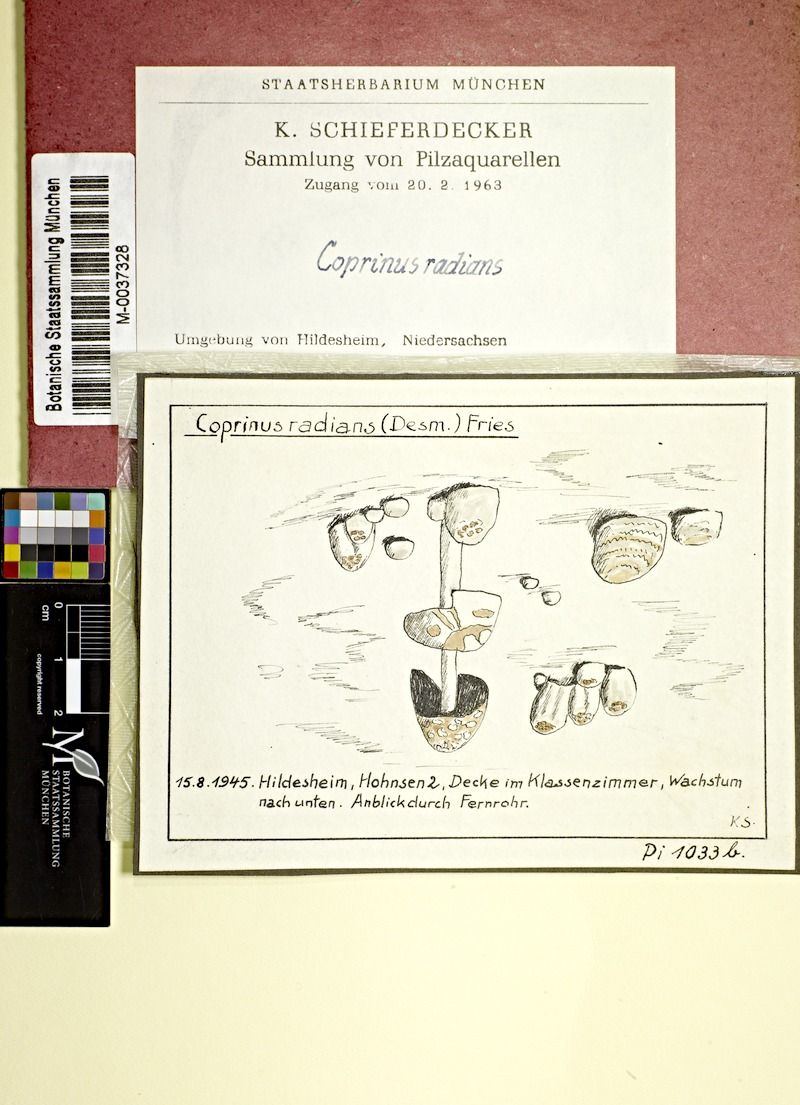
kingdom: Fungi
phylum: Basidiomycota
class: Agaricomycetes
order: Agaricales
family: Psathyrellaceae
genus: Coprinellus
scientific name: Coprinellus radians
